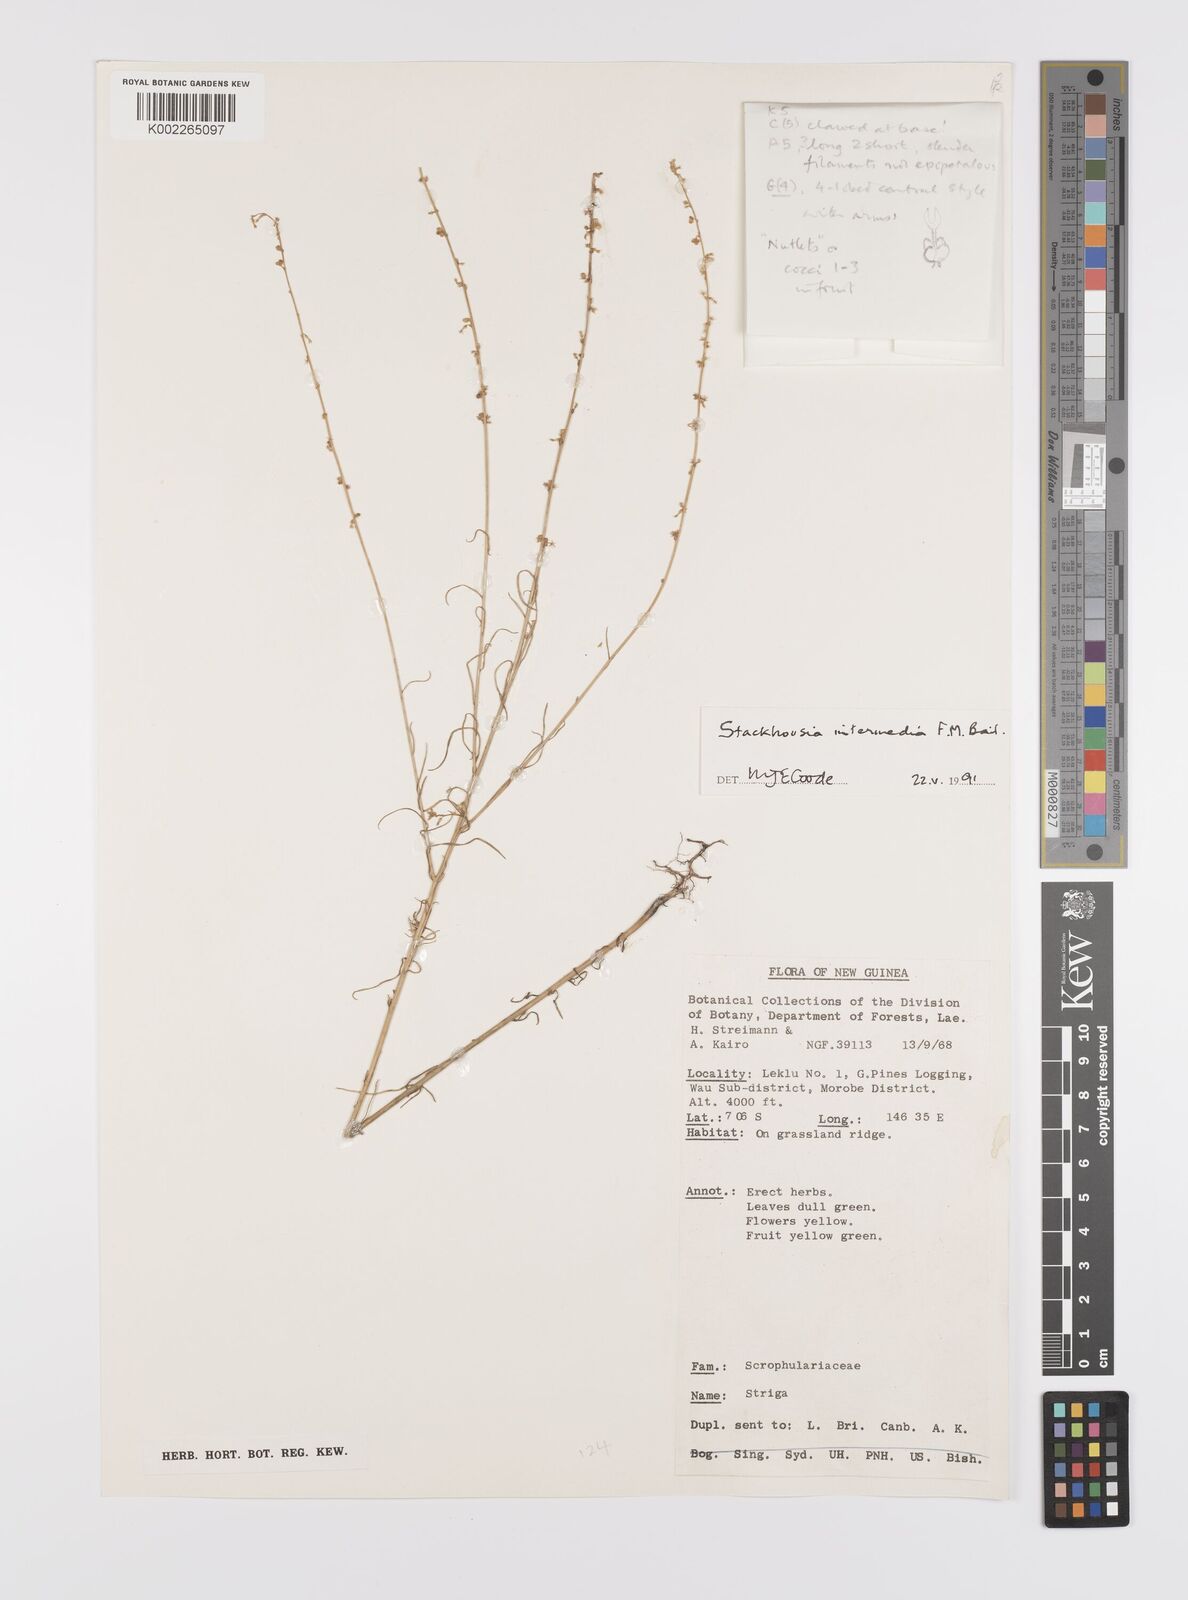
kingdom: Plantae
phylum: Tracheophyta
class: Magnoliopsida
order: Celastrales
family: Celastraceae
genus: Stackhousia
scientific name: Stackhousia intermedia
